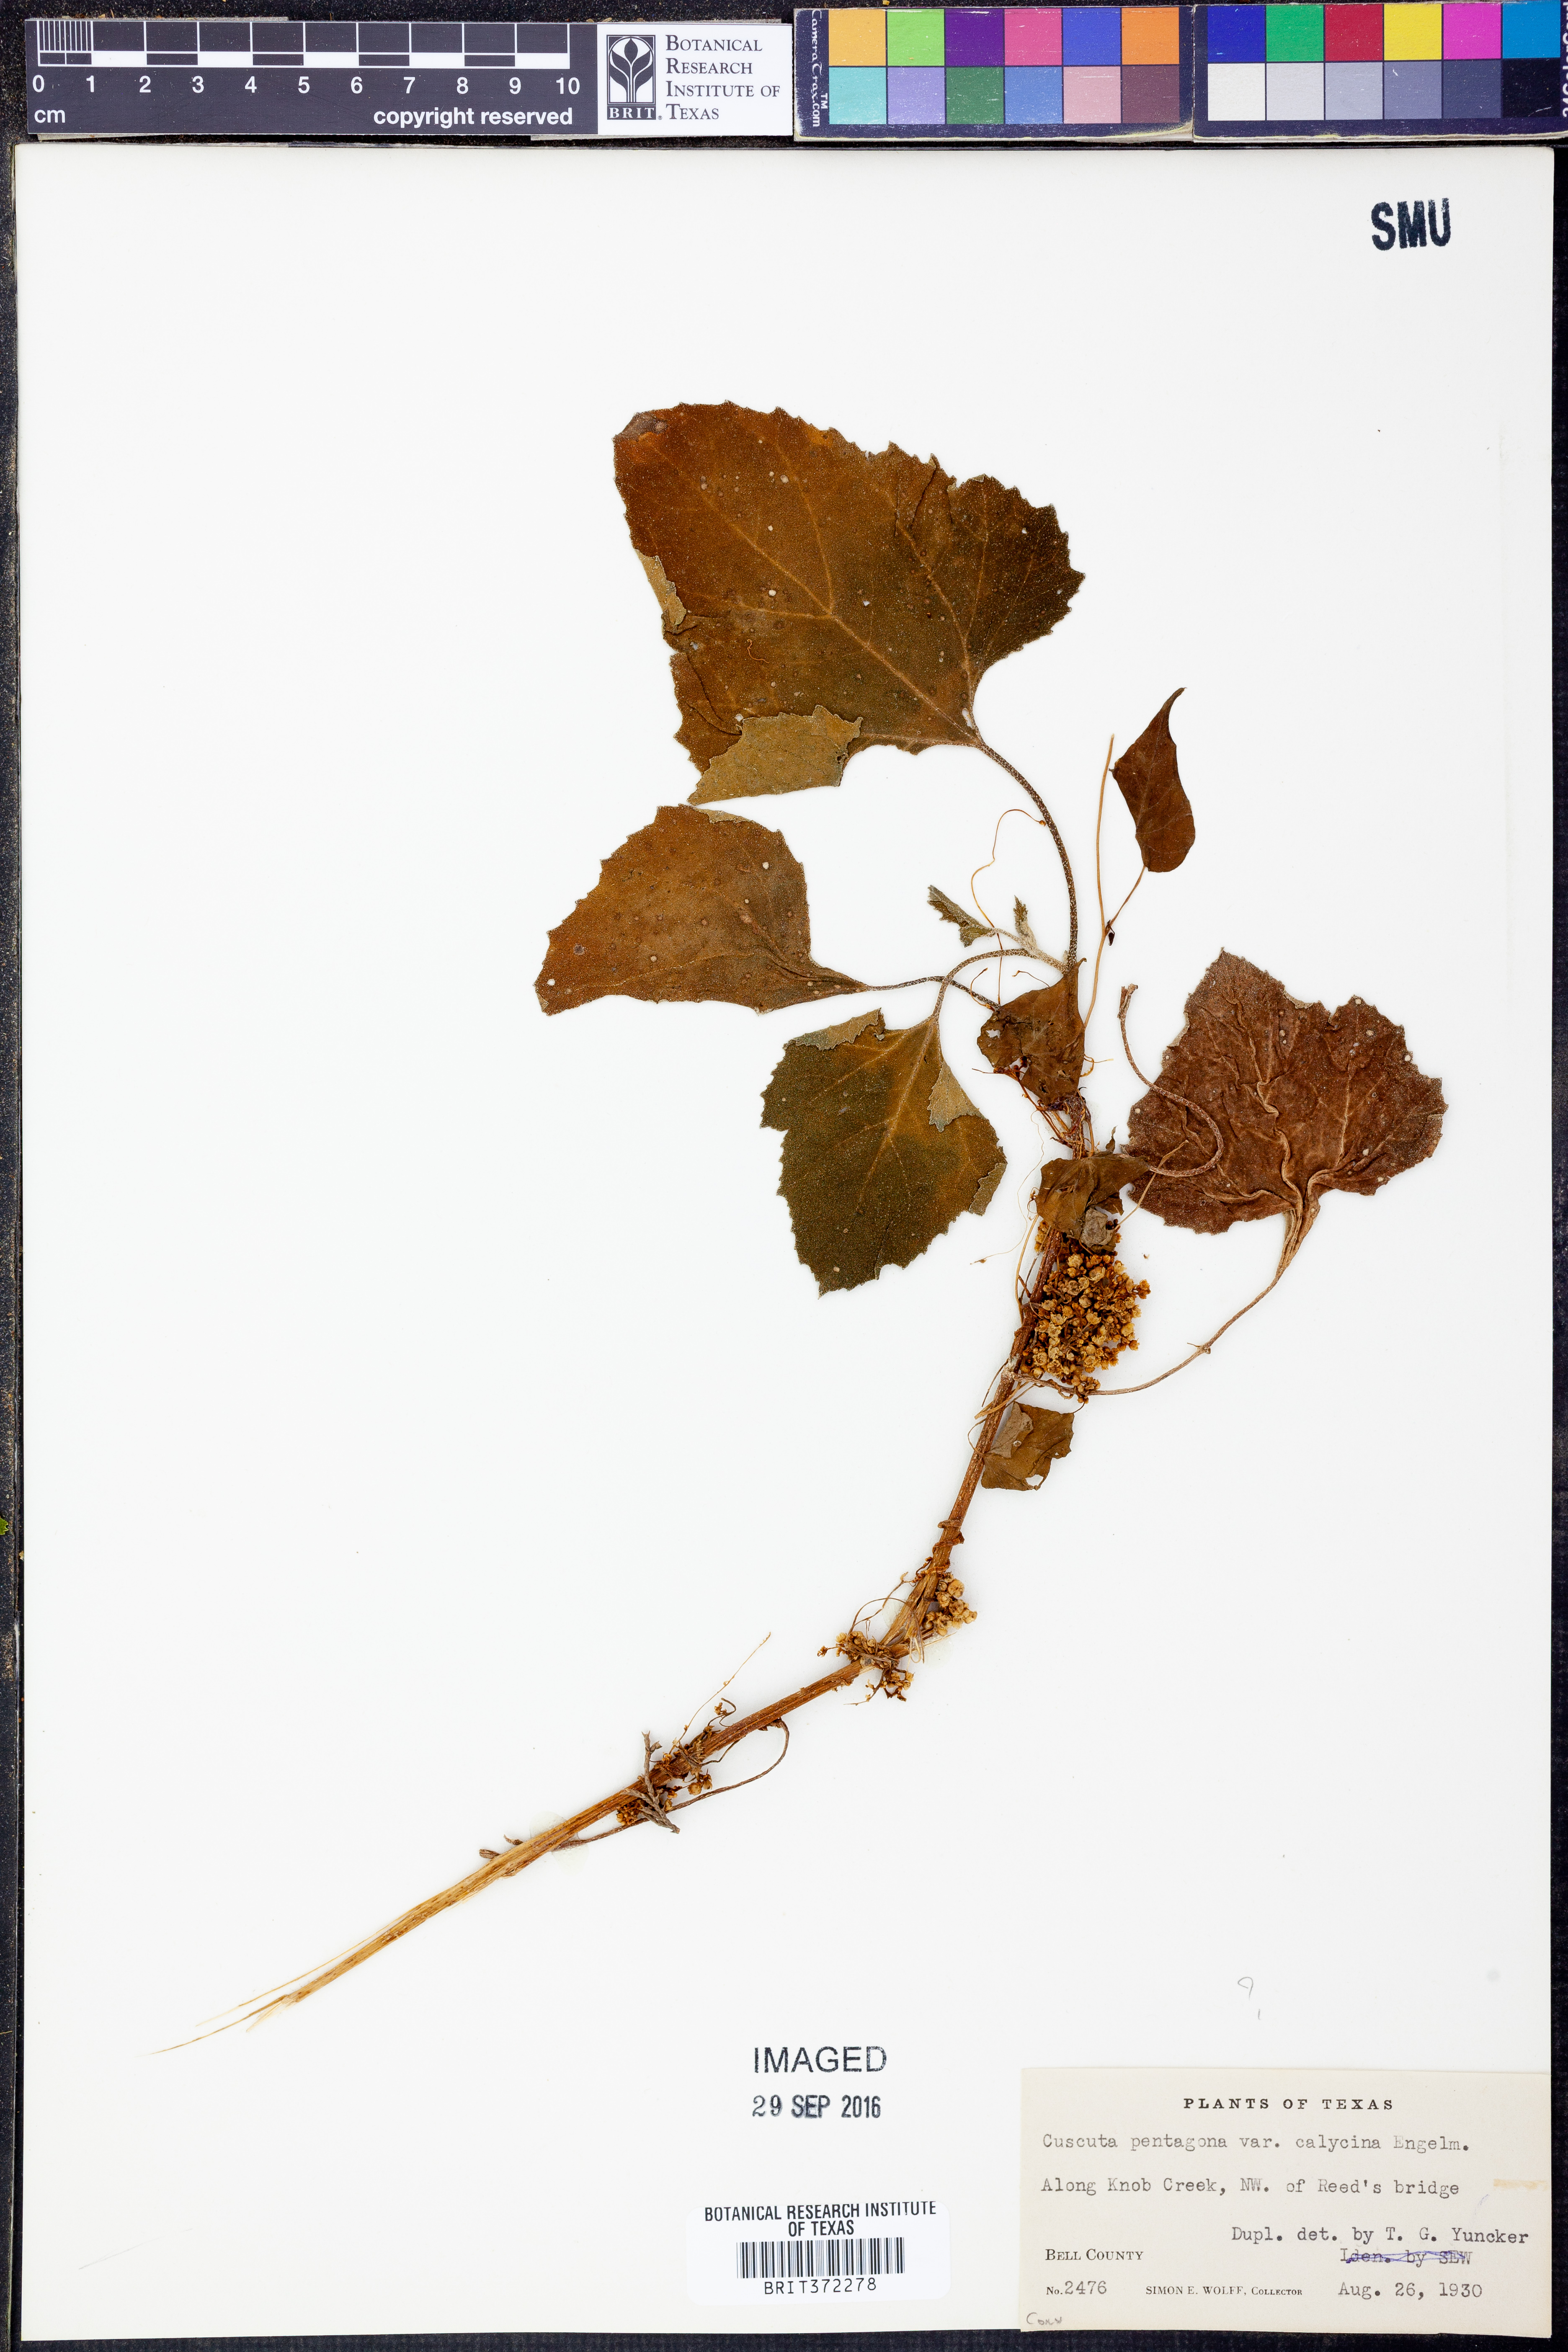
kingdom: Plantae
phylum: Tracheophyta
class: Magnoliopsida
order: Solanales
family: Convolvulaceae
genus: Cuscuta
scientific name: Cuscuta pentagona
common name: Fiveangled dodder
